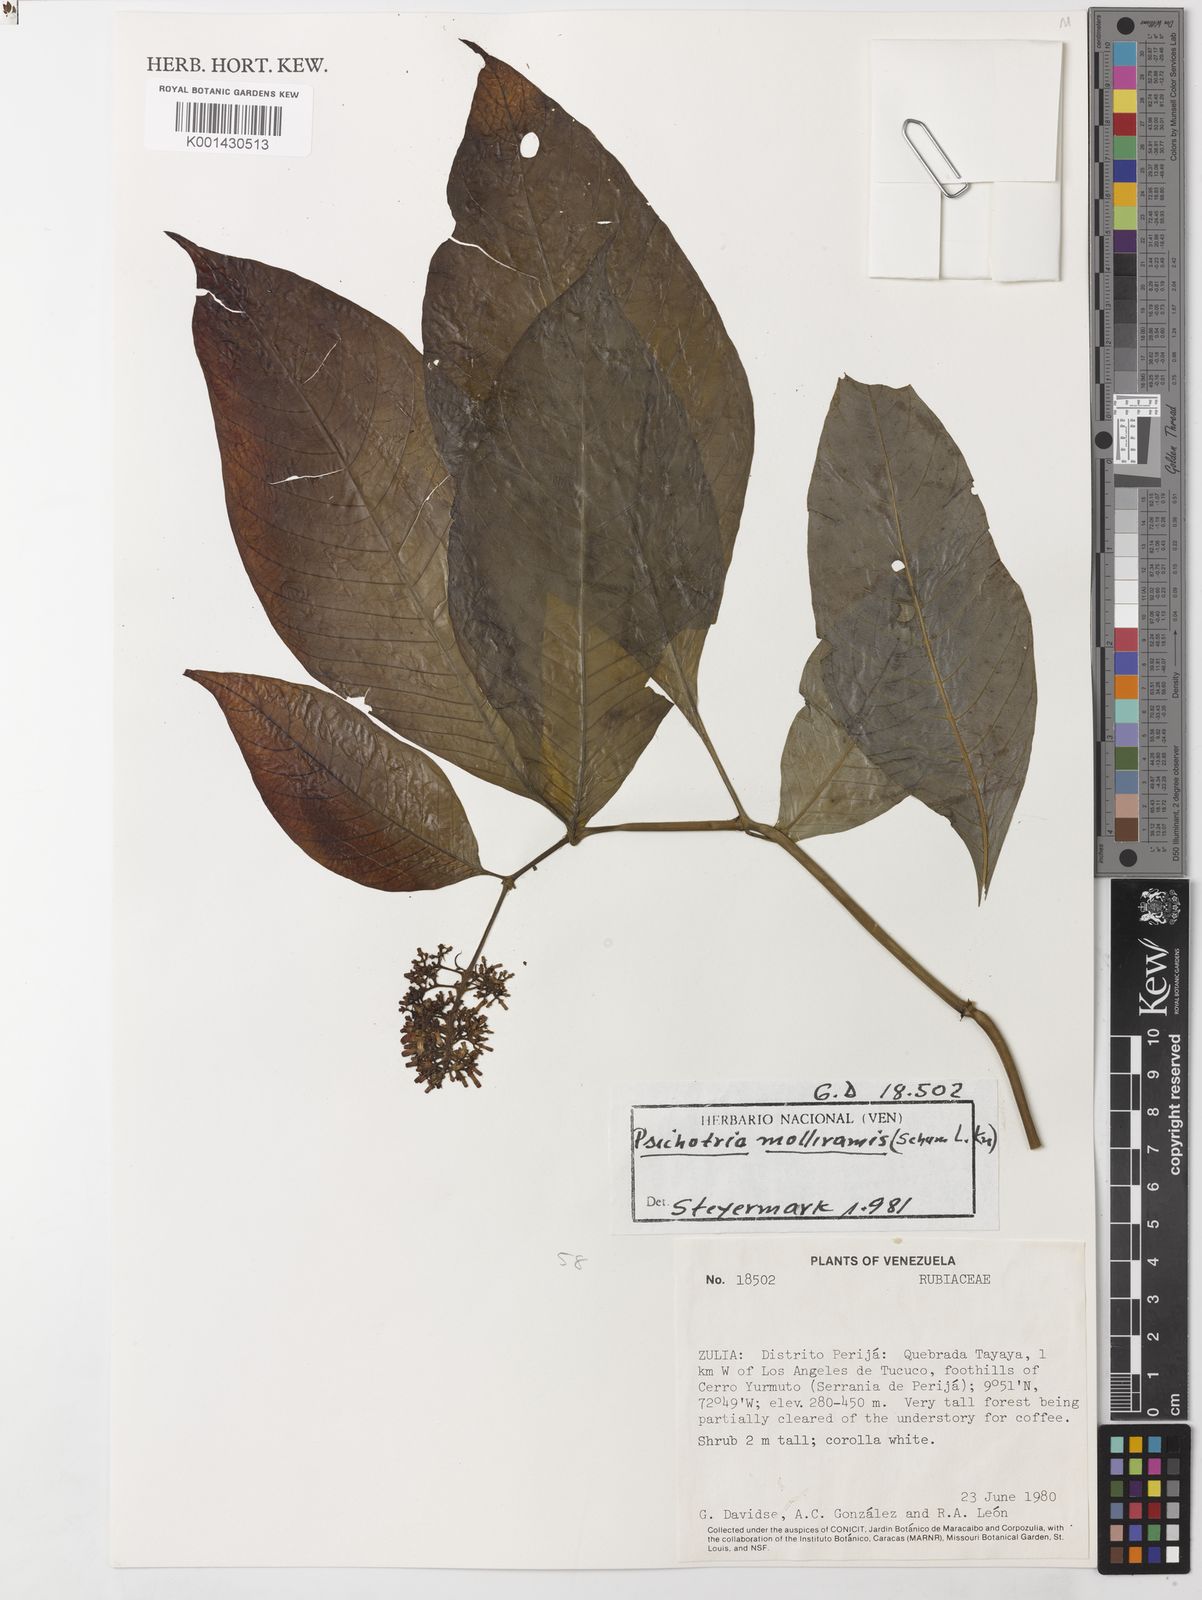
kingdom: Plantae
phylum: Tracheophyta
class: Magnoliopsida
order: Gentianales
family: Rubiaceae
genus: Palicourea
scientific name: Palicourea hebeclada
